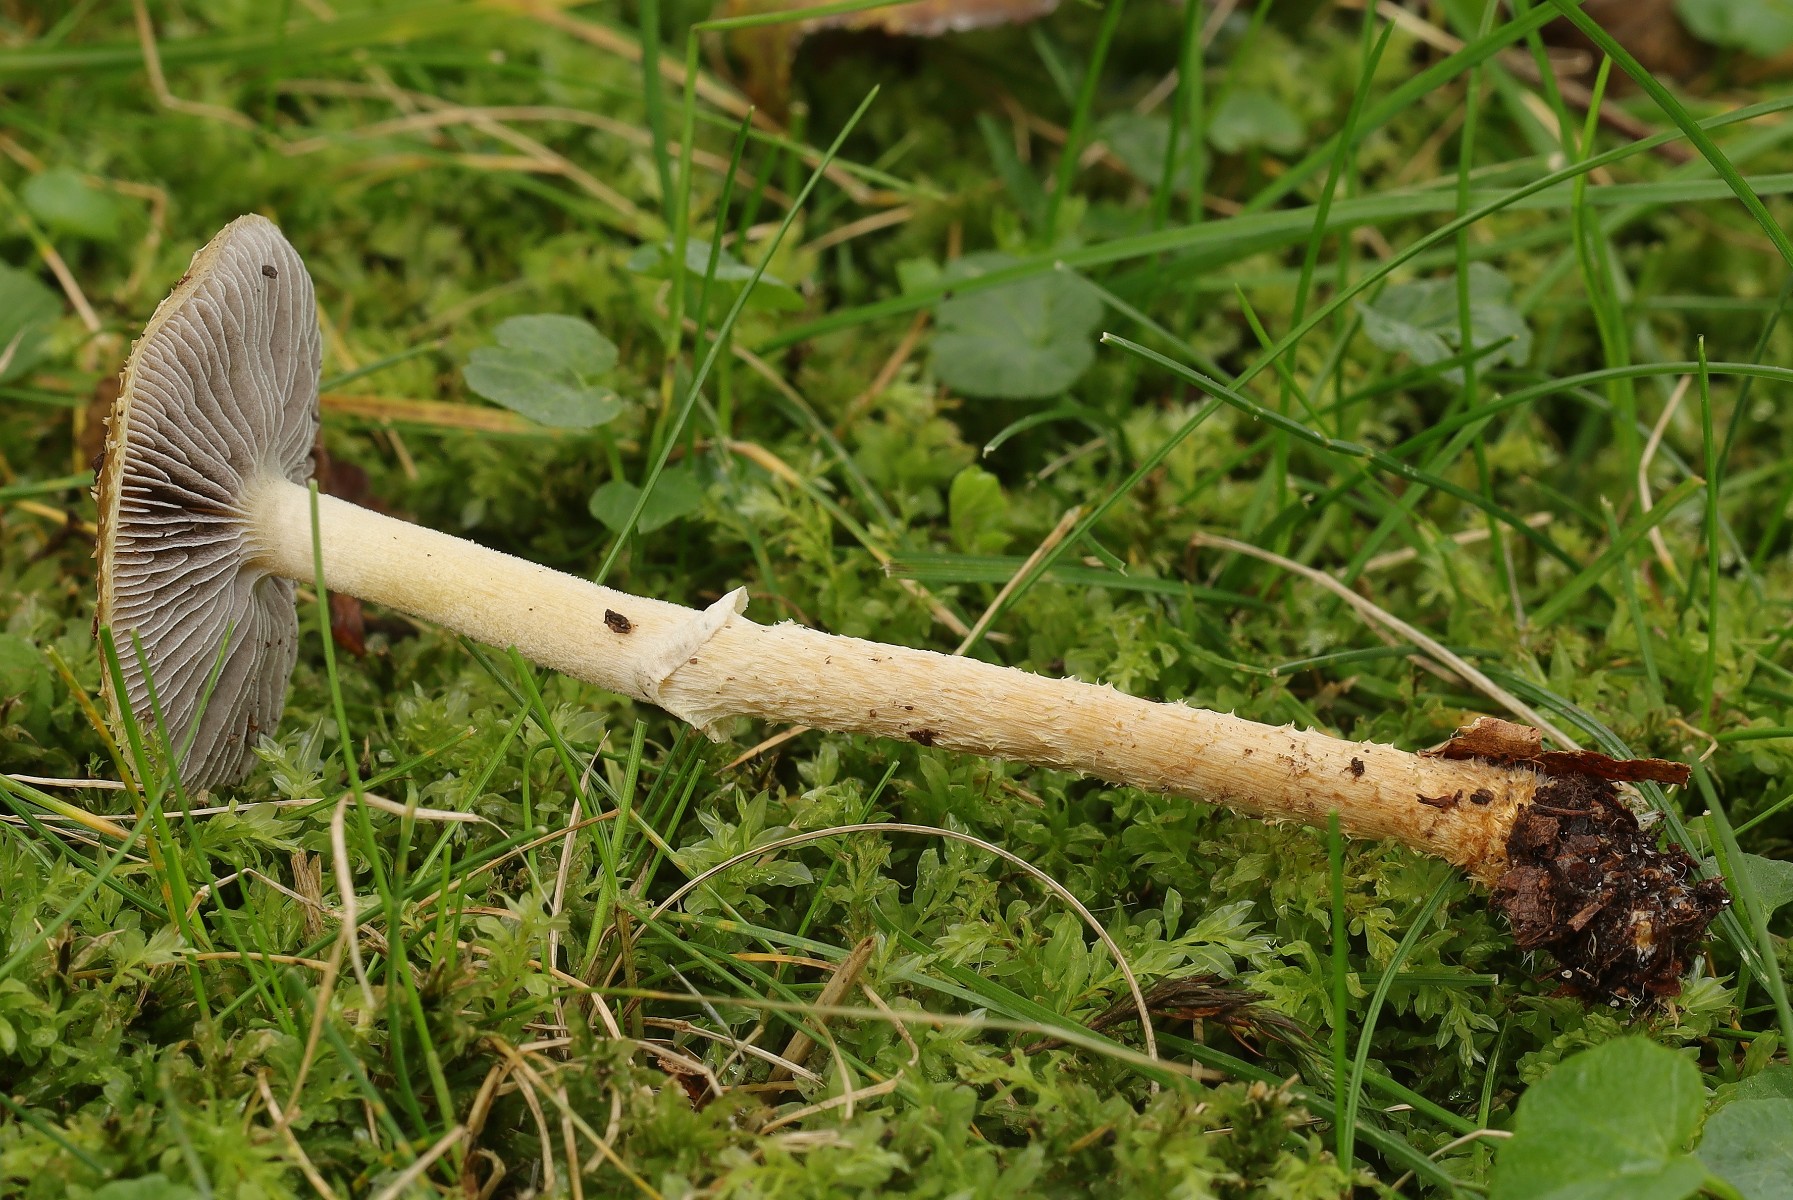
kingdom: Fungi
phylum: Basidiomycota
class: Agaricomycetes
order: Agaricales
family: Strophariaceae
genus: Leratiomyces
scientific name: Leratiomyces squamosus
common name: skællet bredblad
